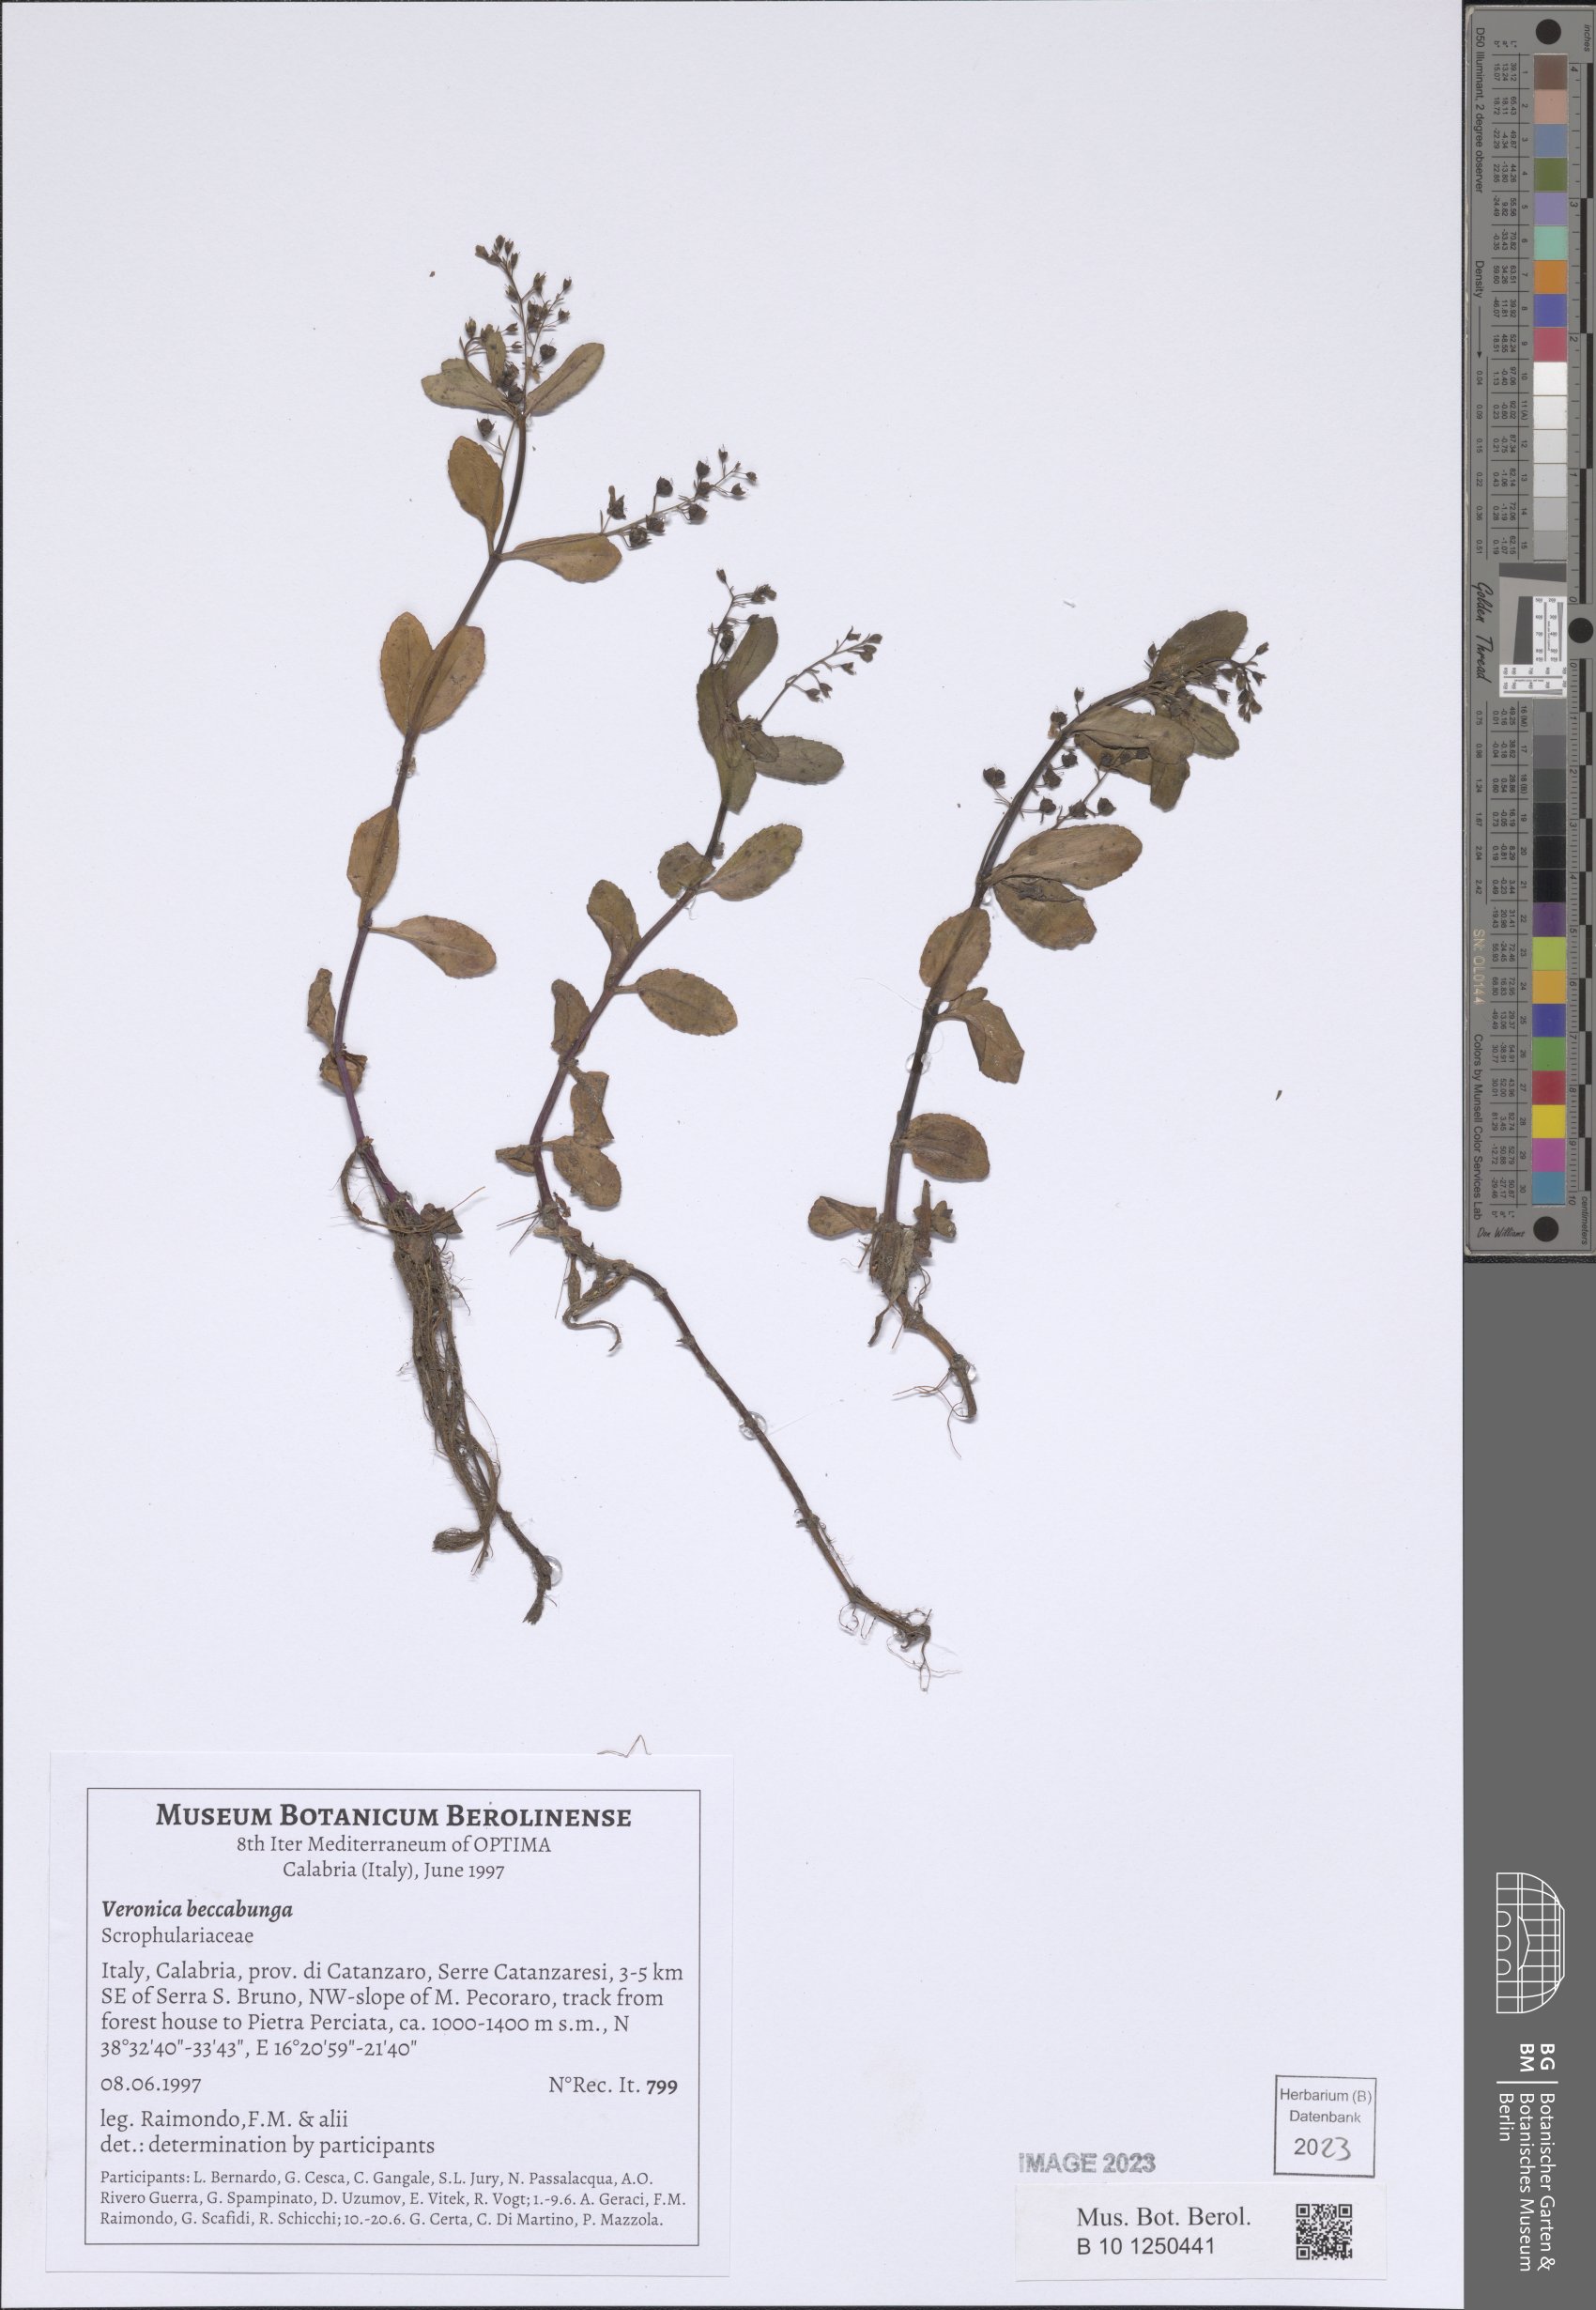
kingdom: Plantae
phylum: Tracheophyta
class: Magnoliopsida
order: Lamiales
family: Plantaginaceae
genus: Veronica
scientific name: Veronica beccabunga
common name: Brooklime
